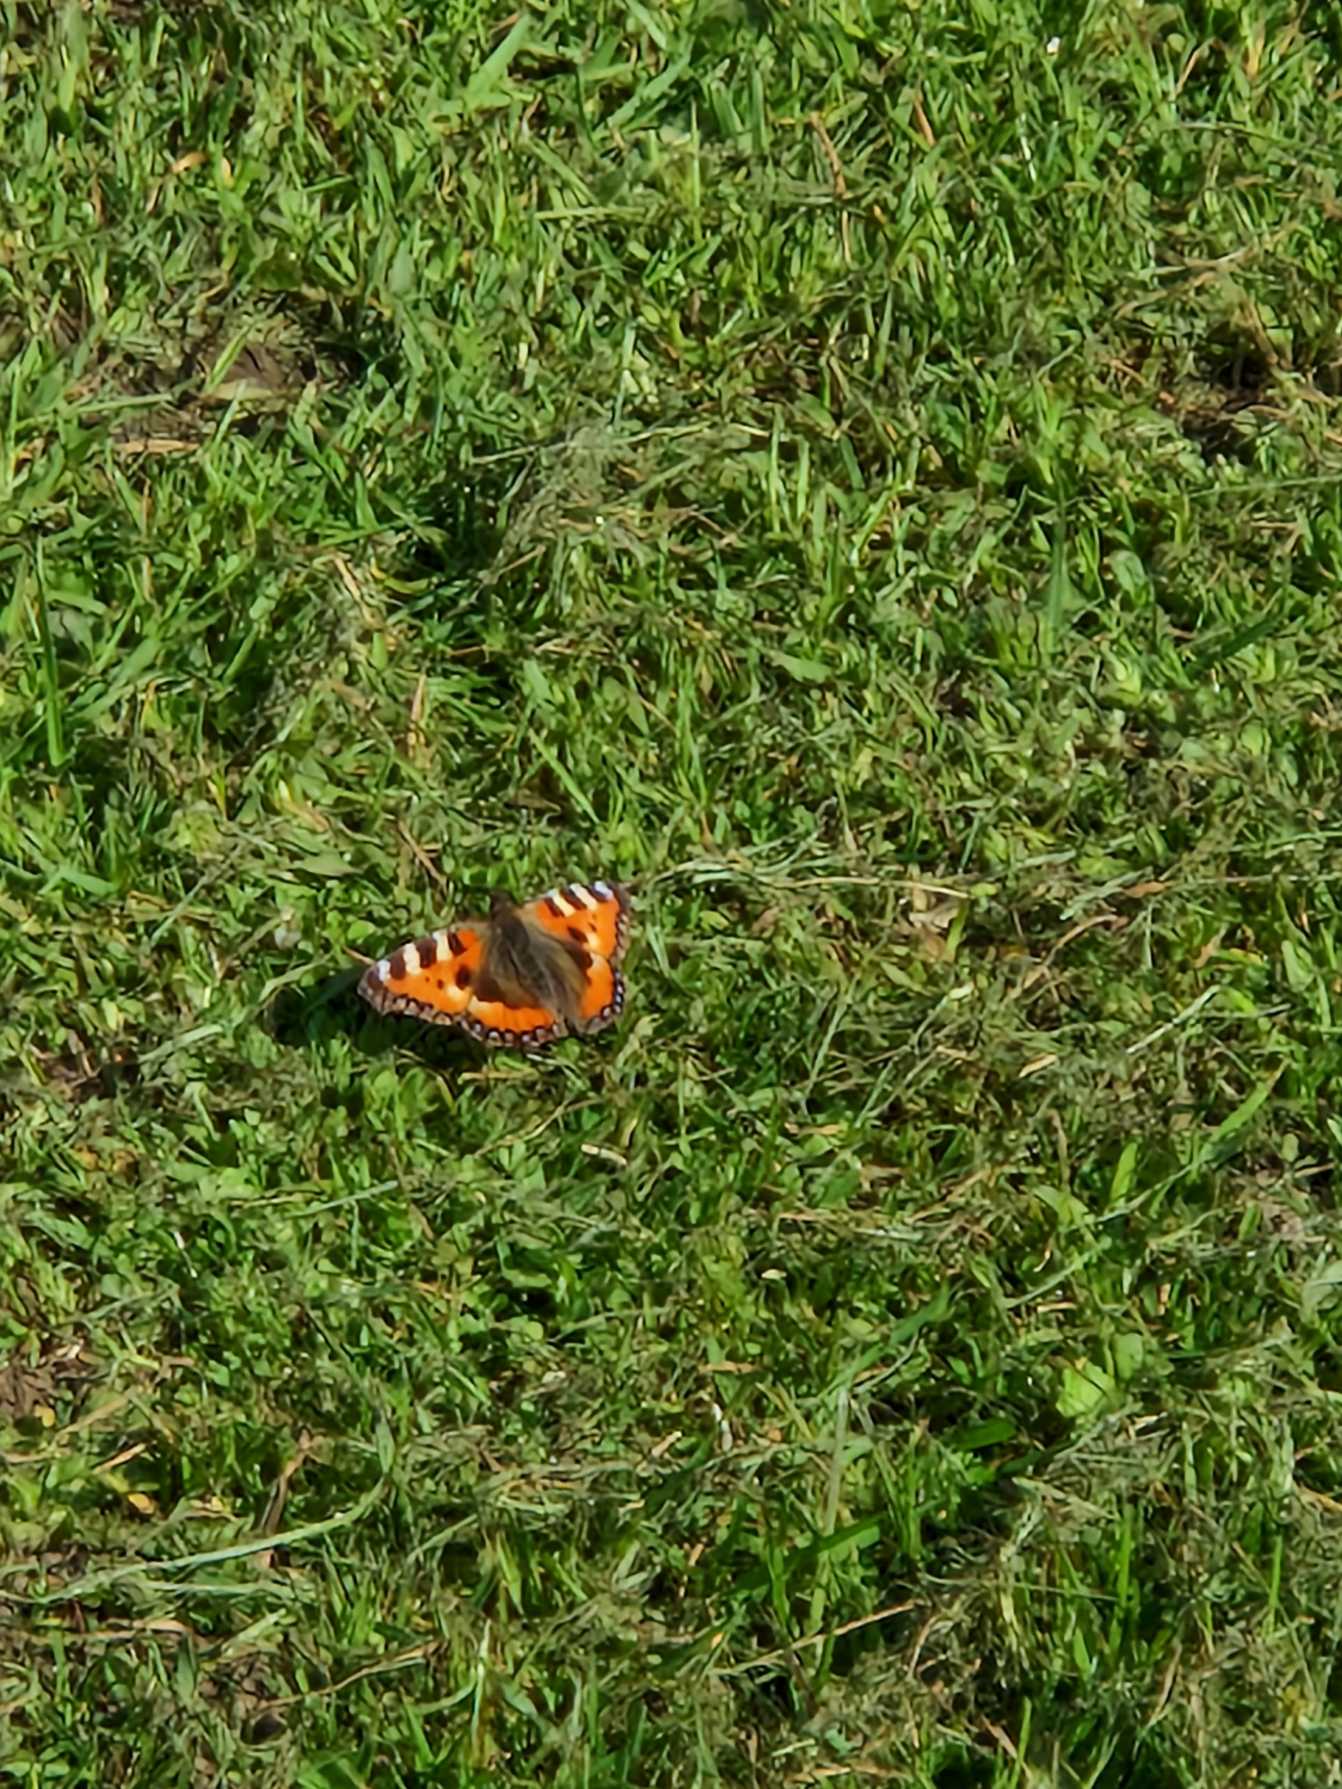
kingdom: Animalia
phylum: Arthropoda
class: Insecta
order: Lepidoptera
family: Nymphalidae
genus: Aglais
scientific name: Aglais urticae
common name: Nældens takvinge
